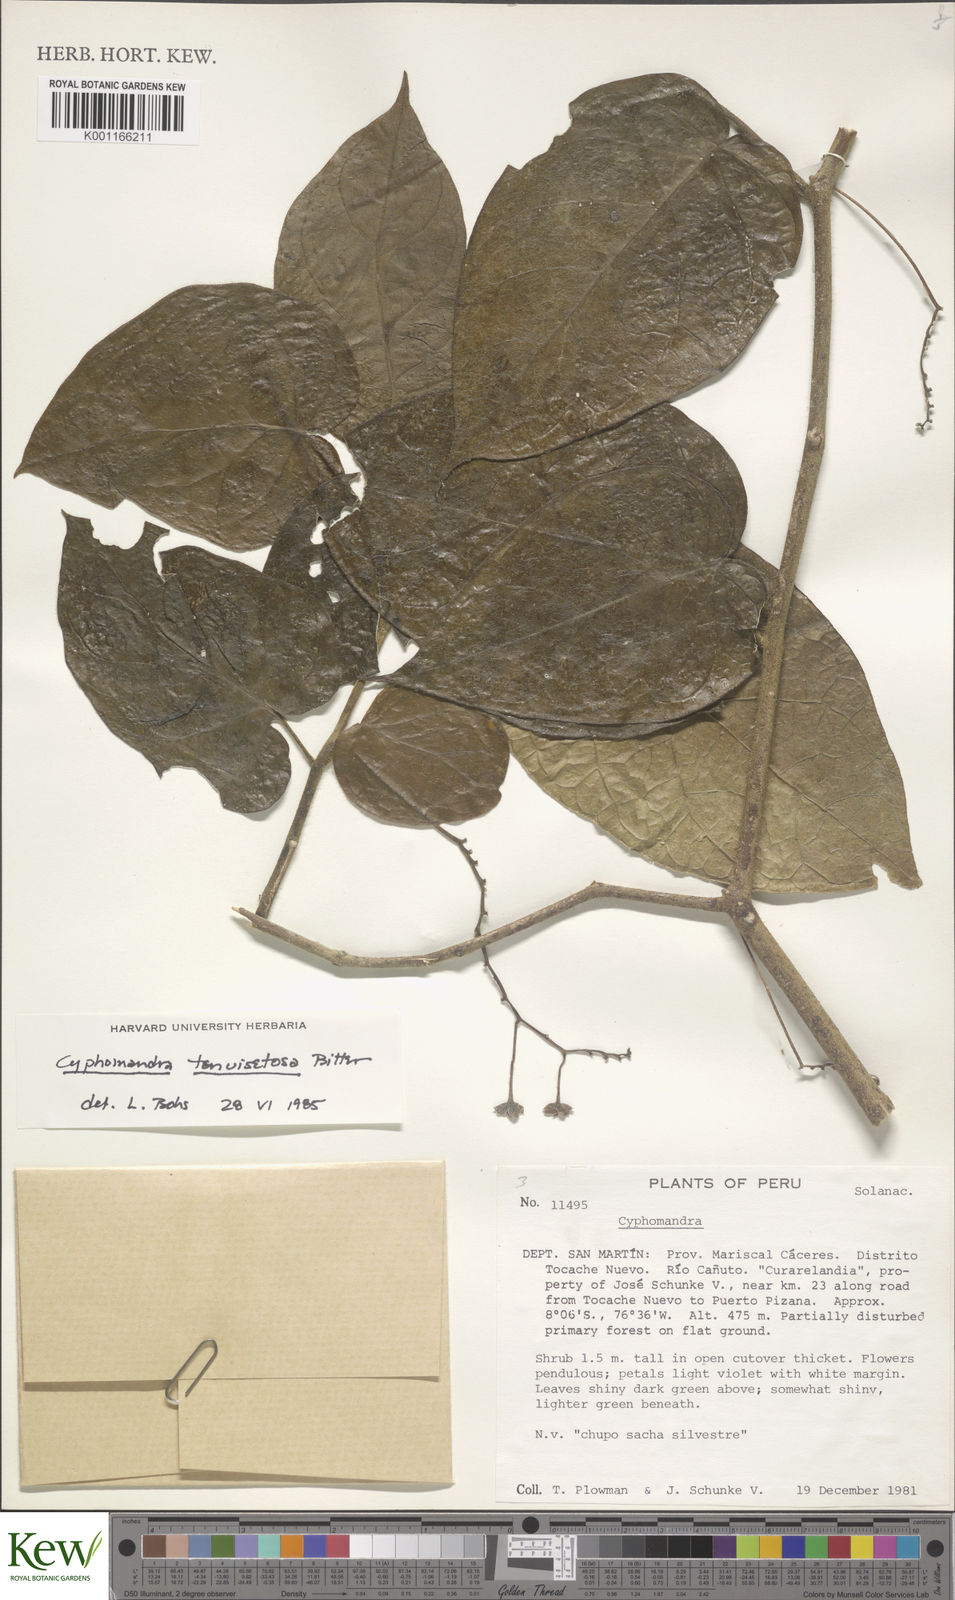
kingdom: Plantae
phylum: Tracheophyta
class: Magnoliopsida
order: Solanales
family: Solanaceae
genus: Solanum
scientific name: Solanum tenuisetosum
